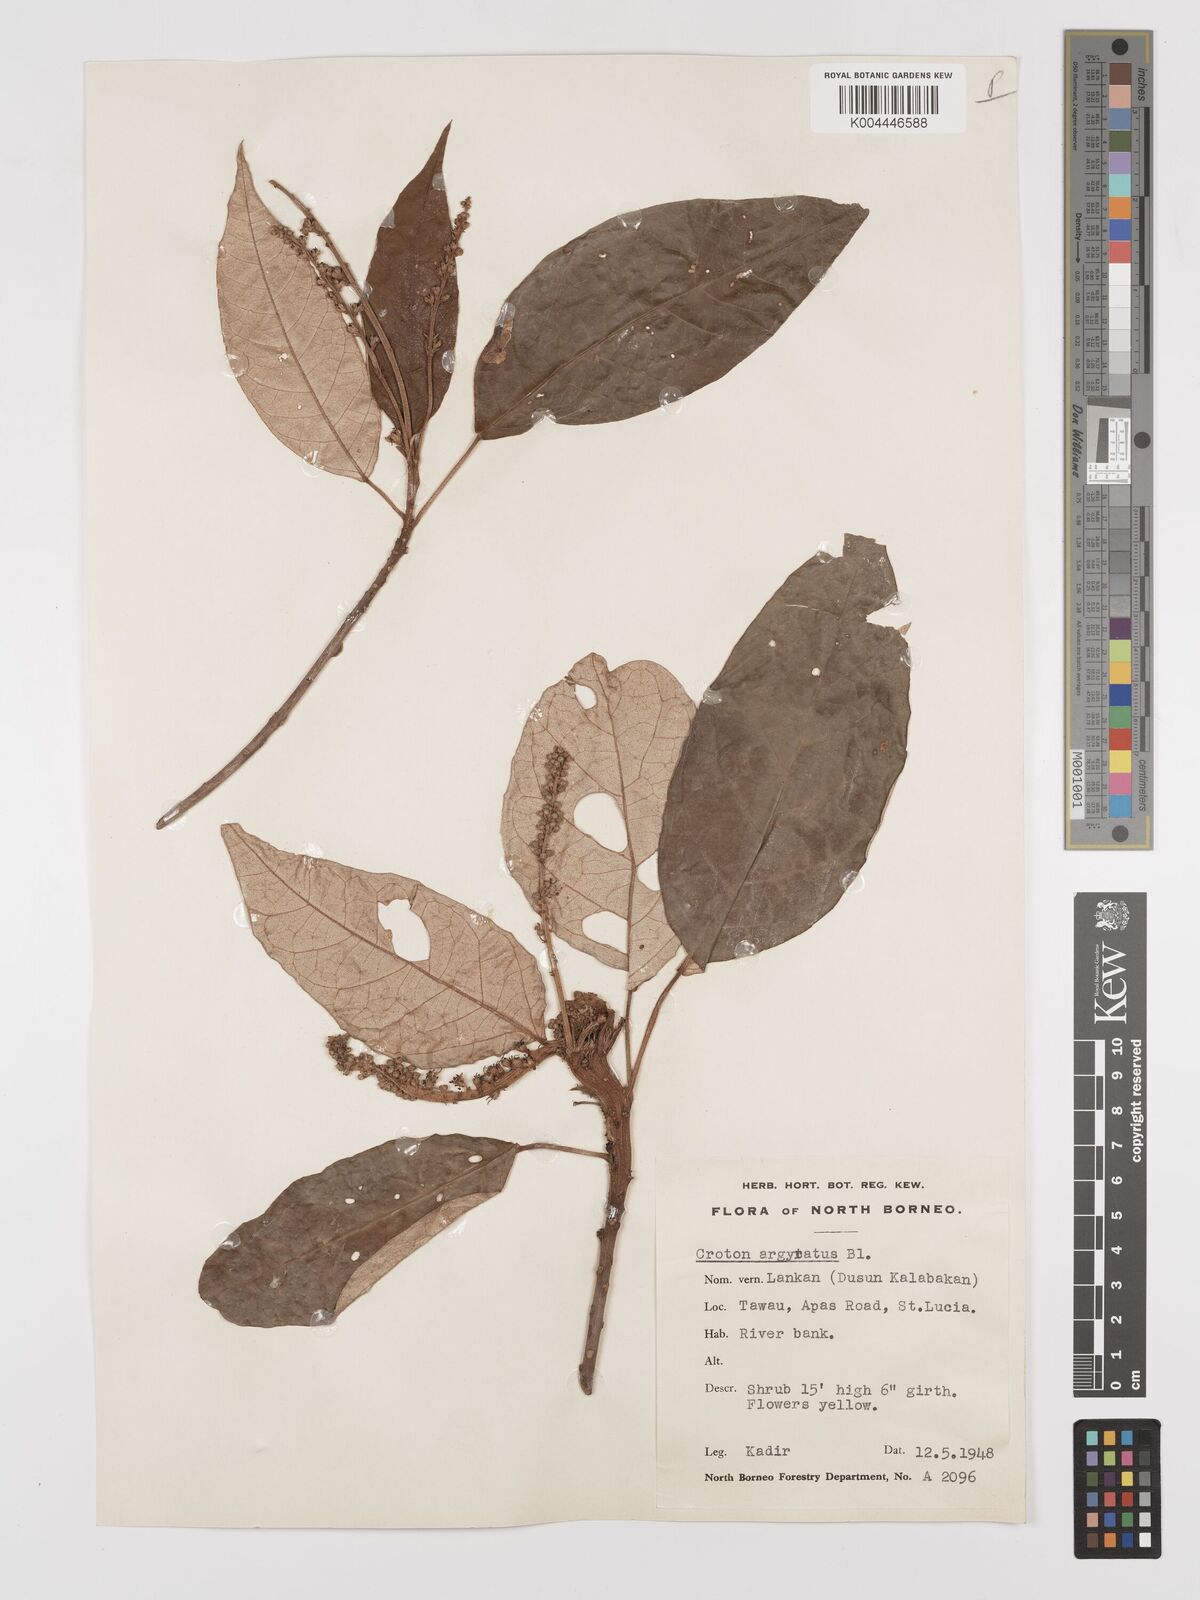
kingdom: Plantae
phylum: Tracheophyta
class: Magnoliopsida
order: Malpighiales
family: Euphorbiaceae
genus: Croton
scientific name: Croton argyratus
